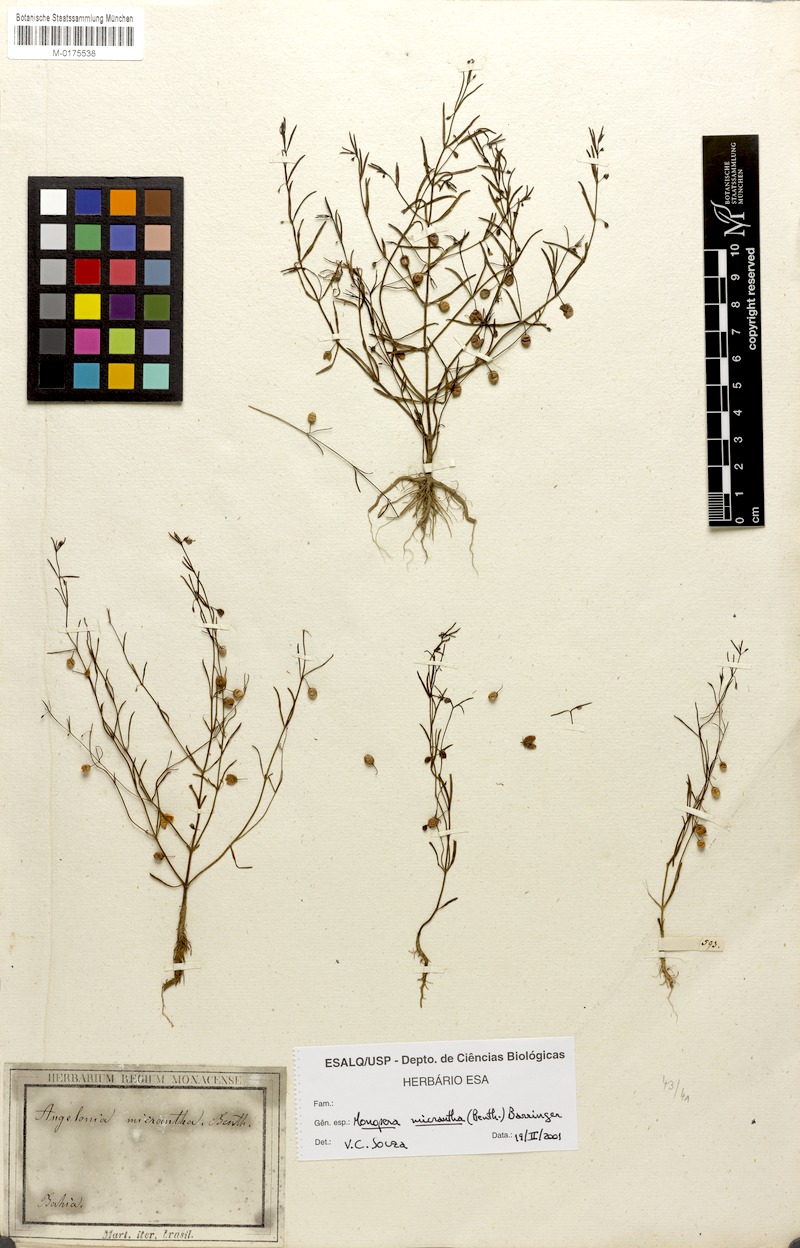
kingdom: Plantae
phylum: Tracheophyta
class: Magnoliopsida
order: Lamiales
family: Plantaginaceae
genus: Angelonia
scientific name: Angelonia micrantha
